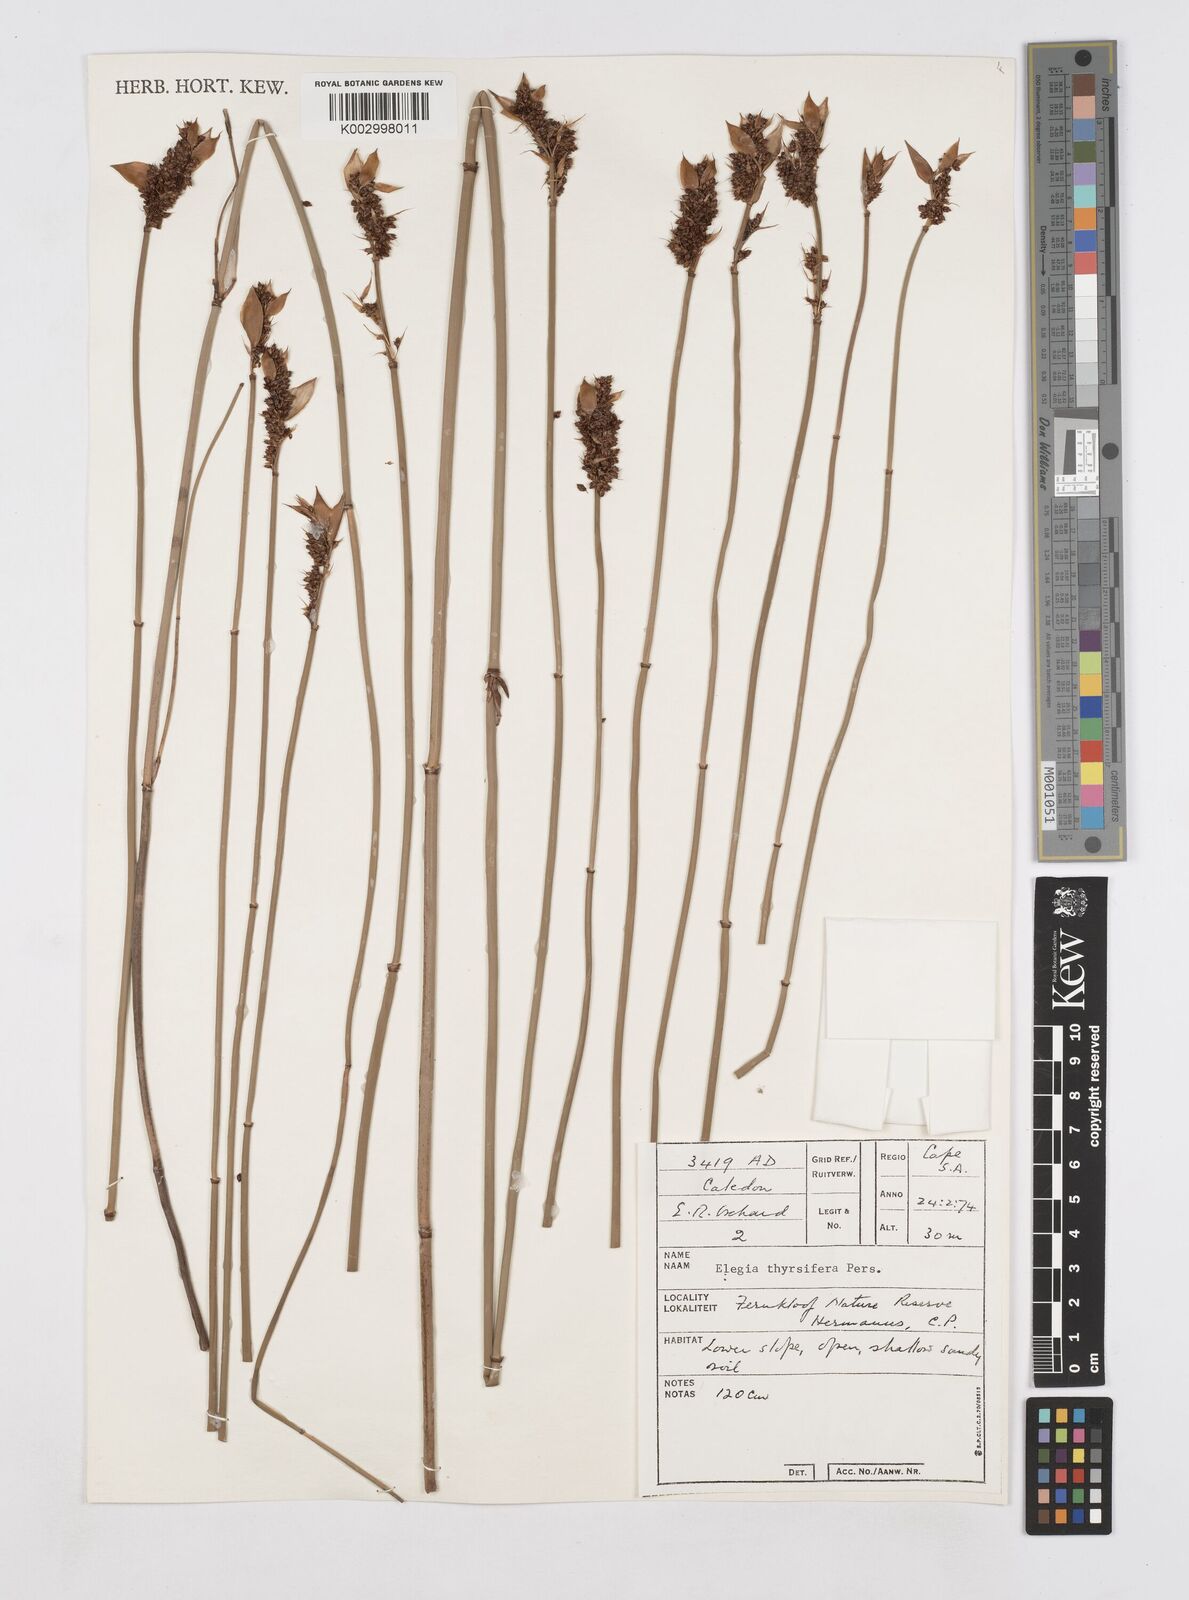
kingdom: Plantae
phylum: Tracheophyta
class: Liliopsida
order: Poales
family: Restionaceae
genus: Elegia
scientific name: Elegia thyrsifera
